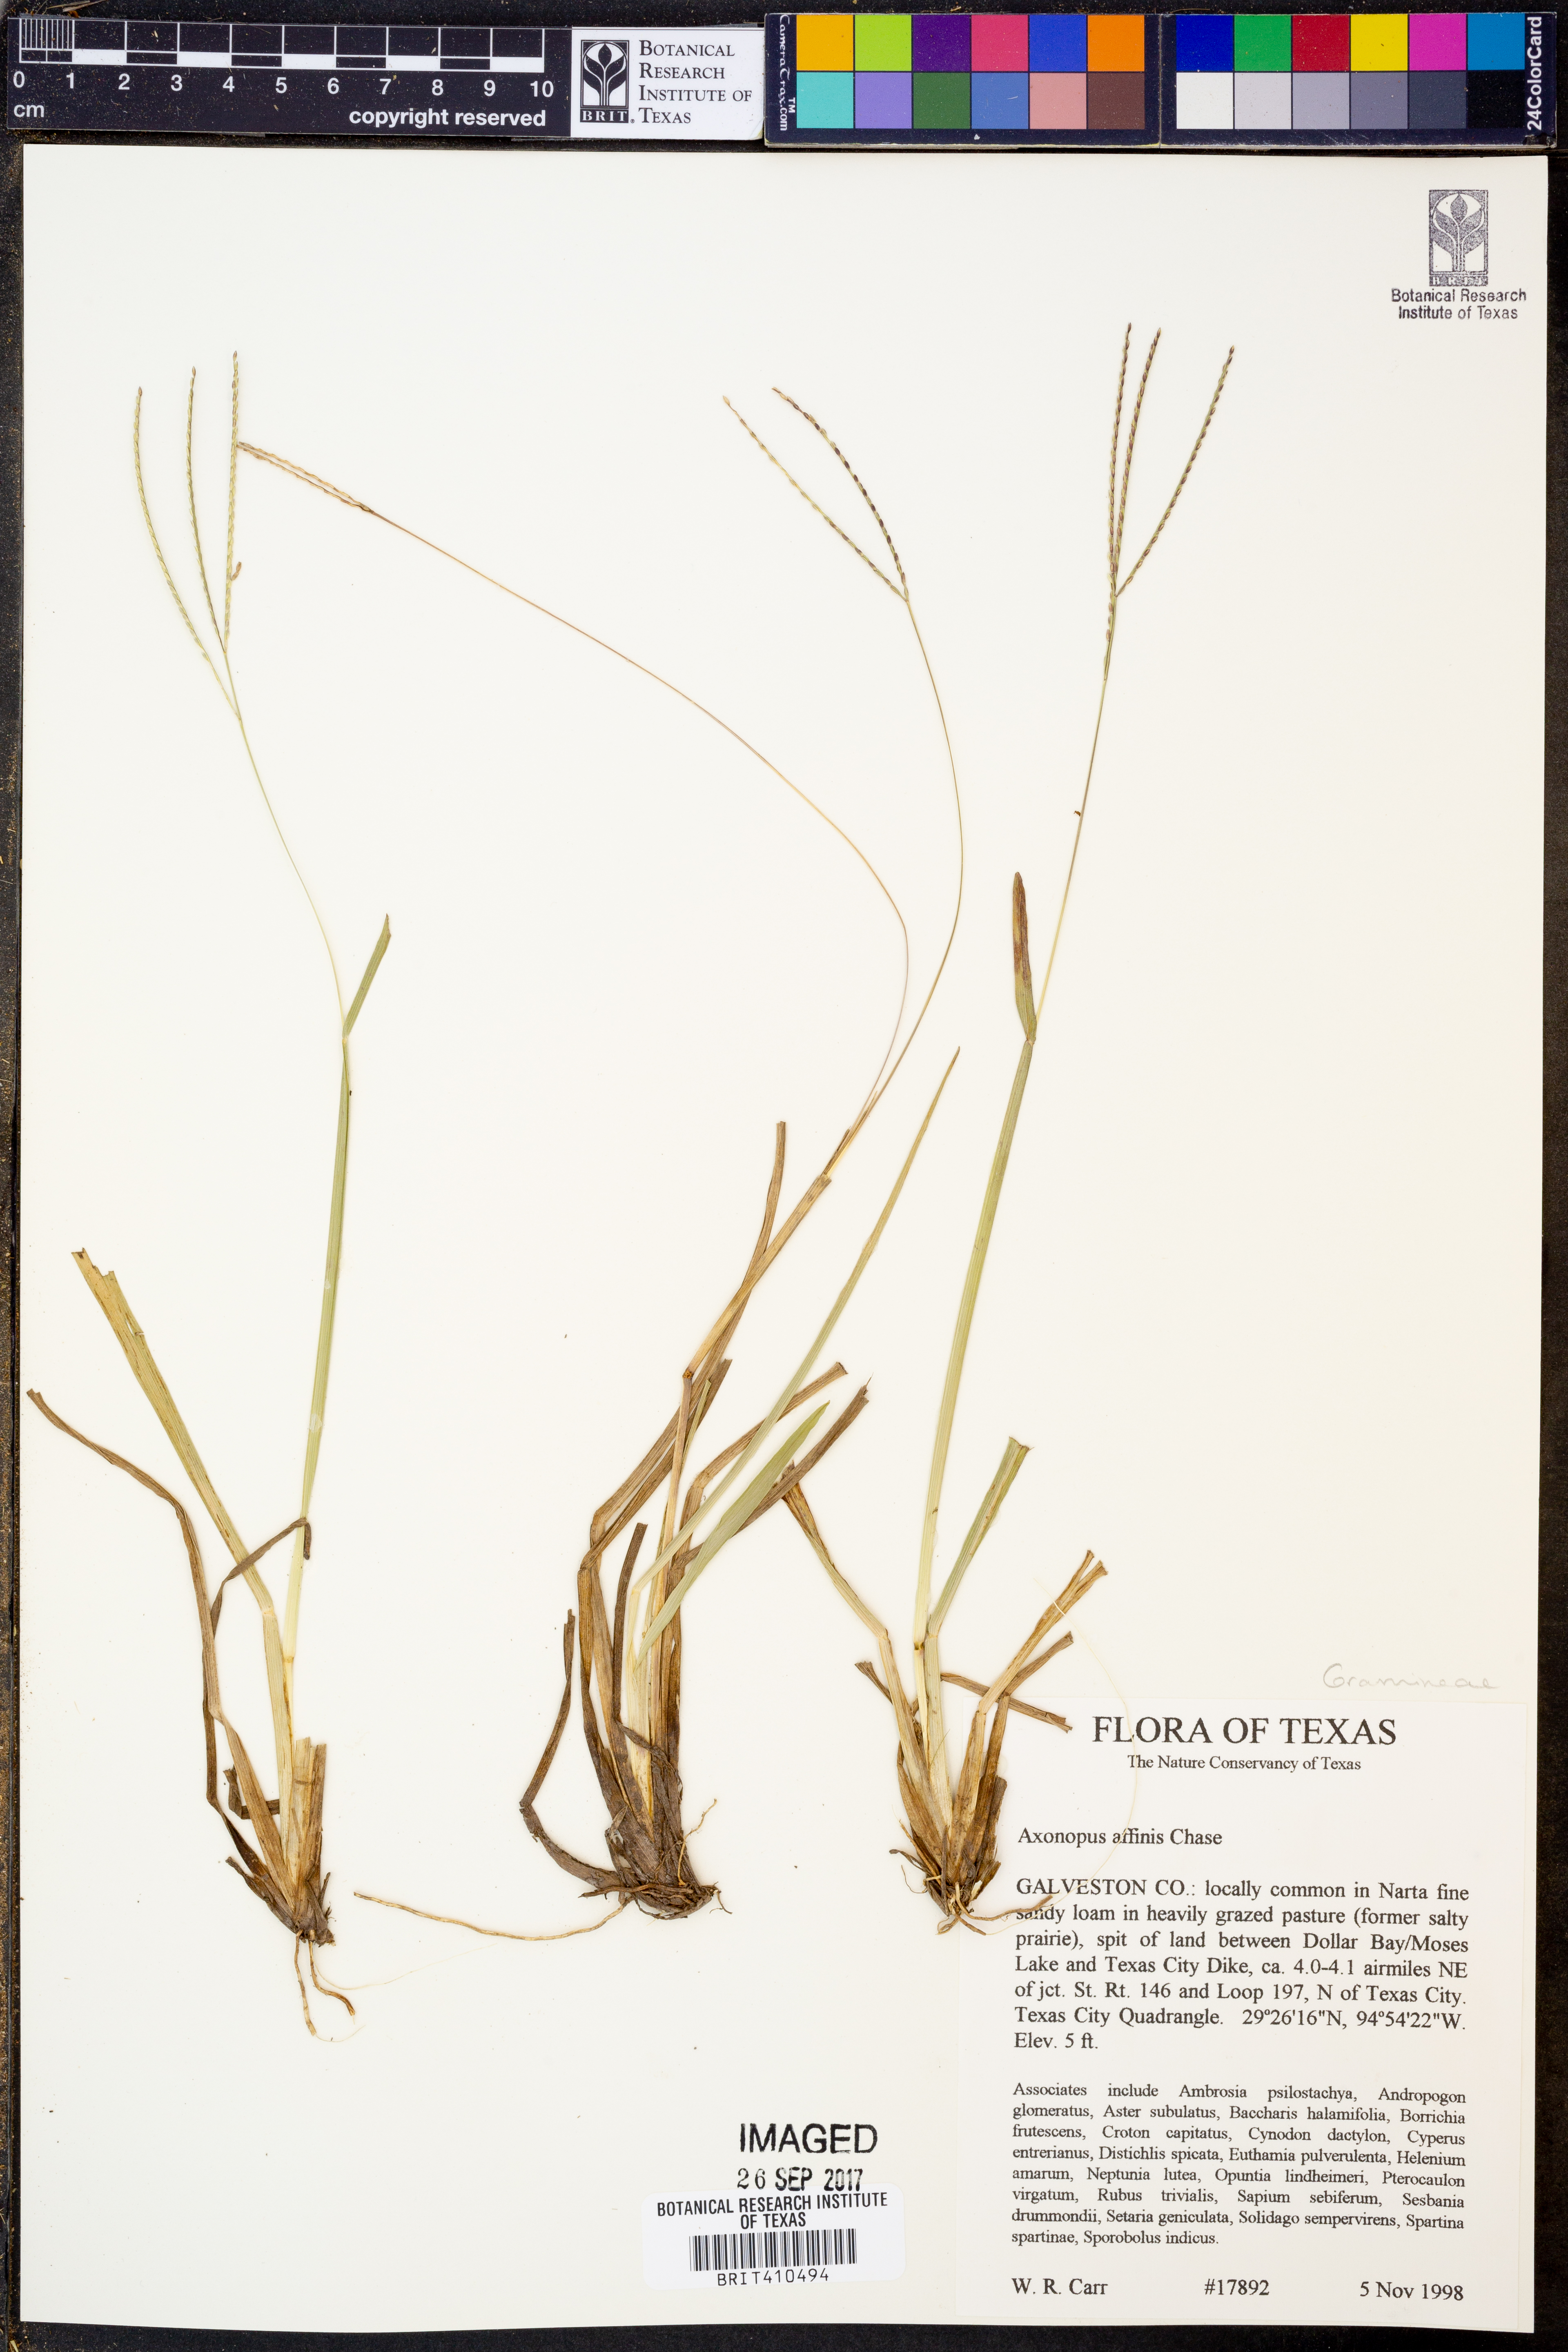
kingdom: Plantae
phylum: Tracheophyta
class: Liliopsida
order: Poales
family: Poaceae
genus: Axonopus
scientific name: Axonopus fissifolius
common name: Common carpetgrass
